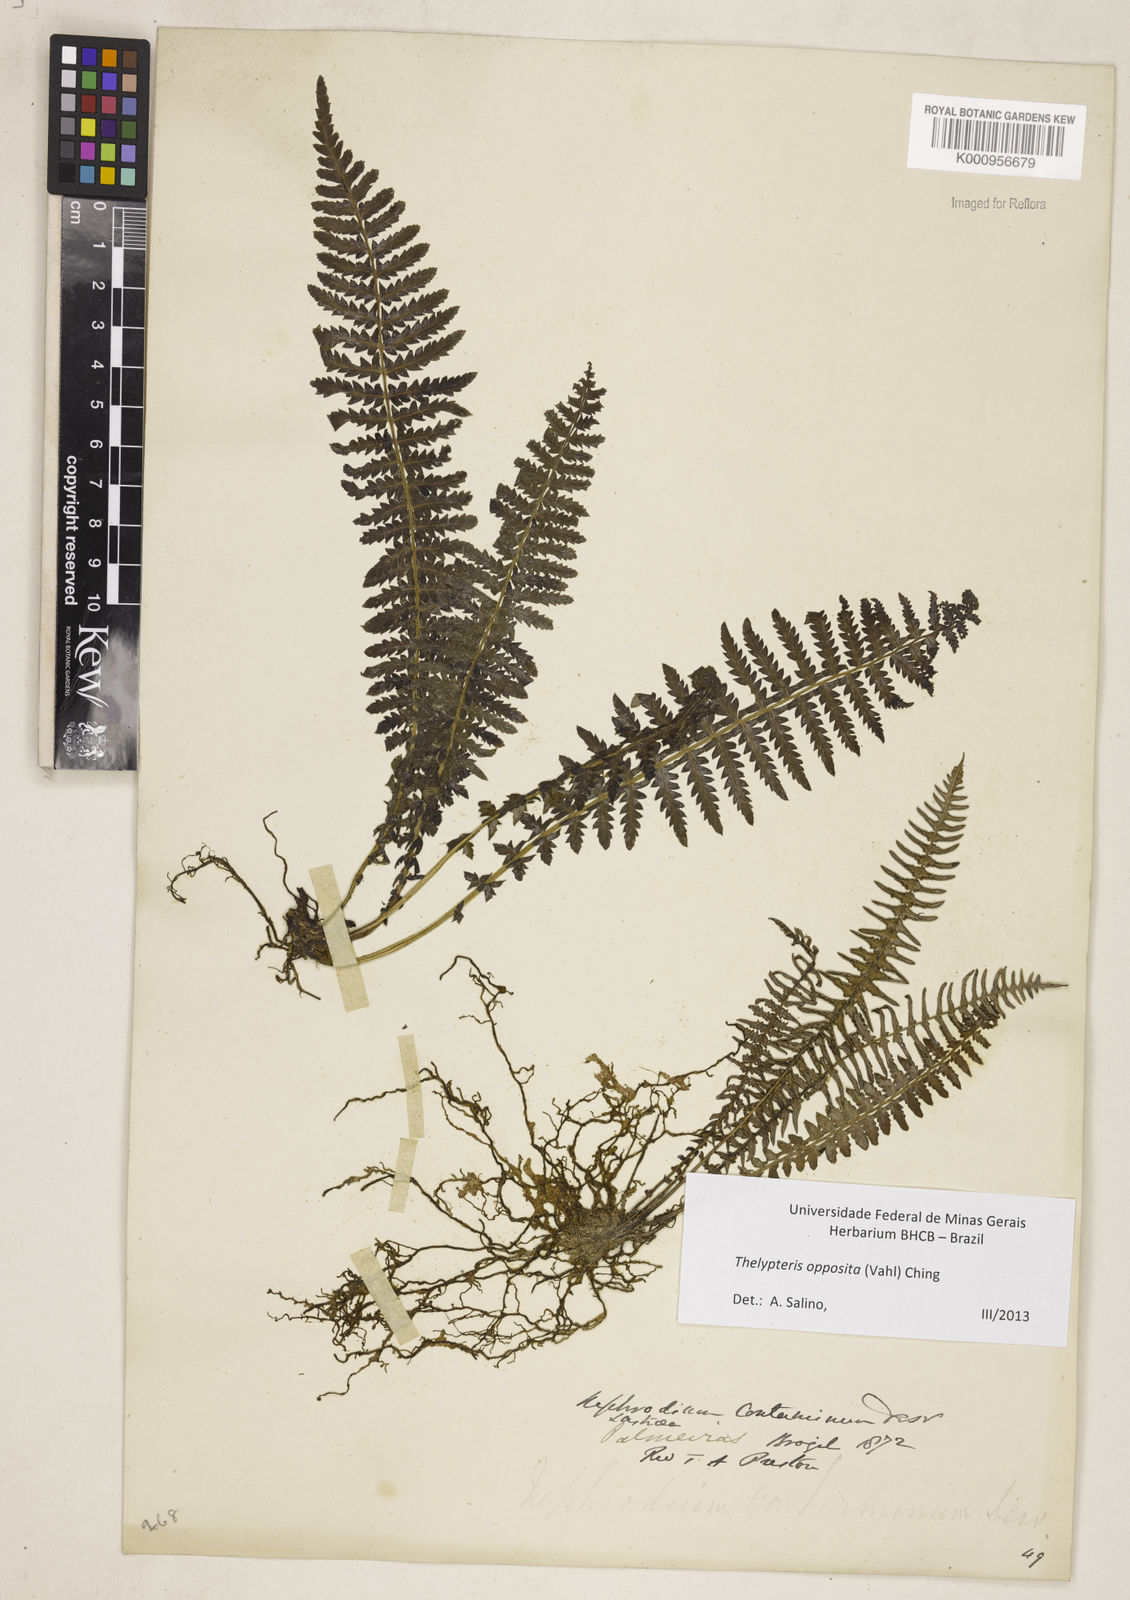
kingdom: Plantae
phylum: Tracheophyta
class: Polypodiopsida
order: Polypodiales
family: Thelypteridaceae
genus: Amauropelta
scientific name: Amauropelta opposita
